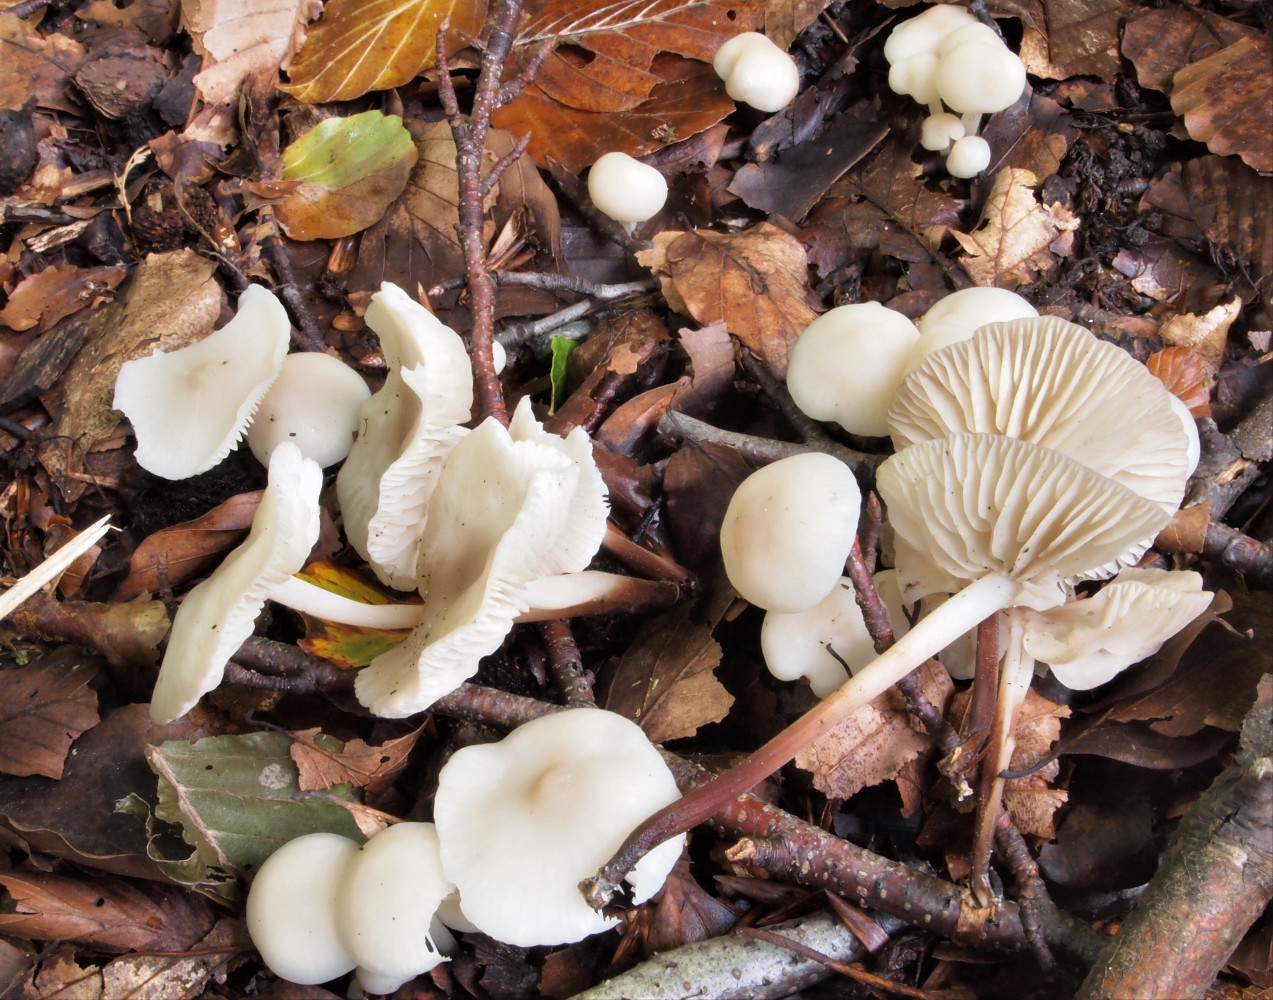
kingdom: Fungi
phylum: Basidiomycota
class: Agaricomycetes
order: Agaricales
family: Marasmiaceae
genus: Marasmius
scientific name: Marasmius wynneae
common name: hvælvet bruskhat
